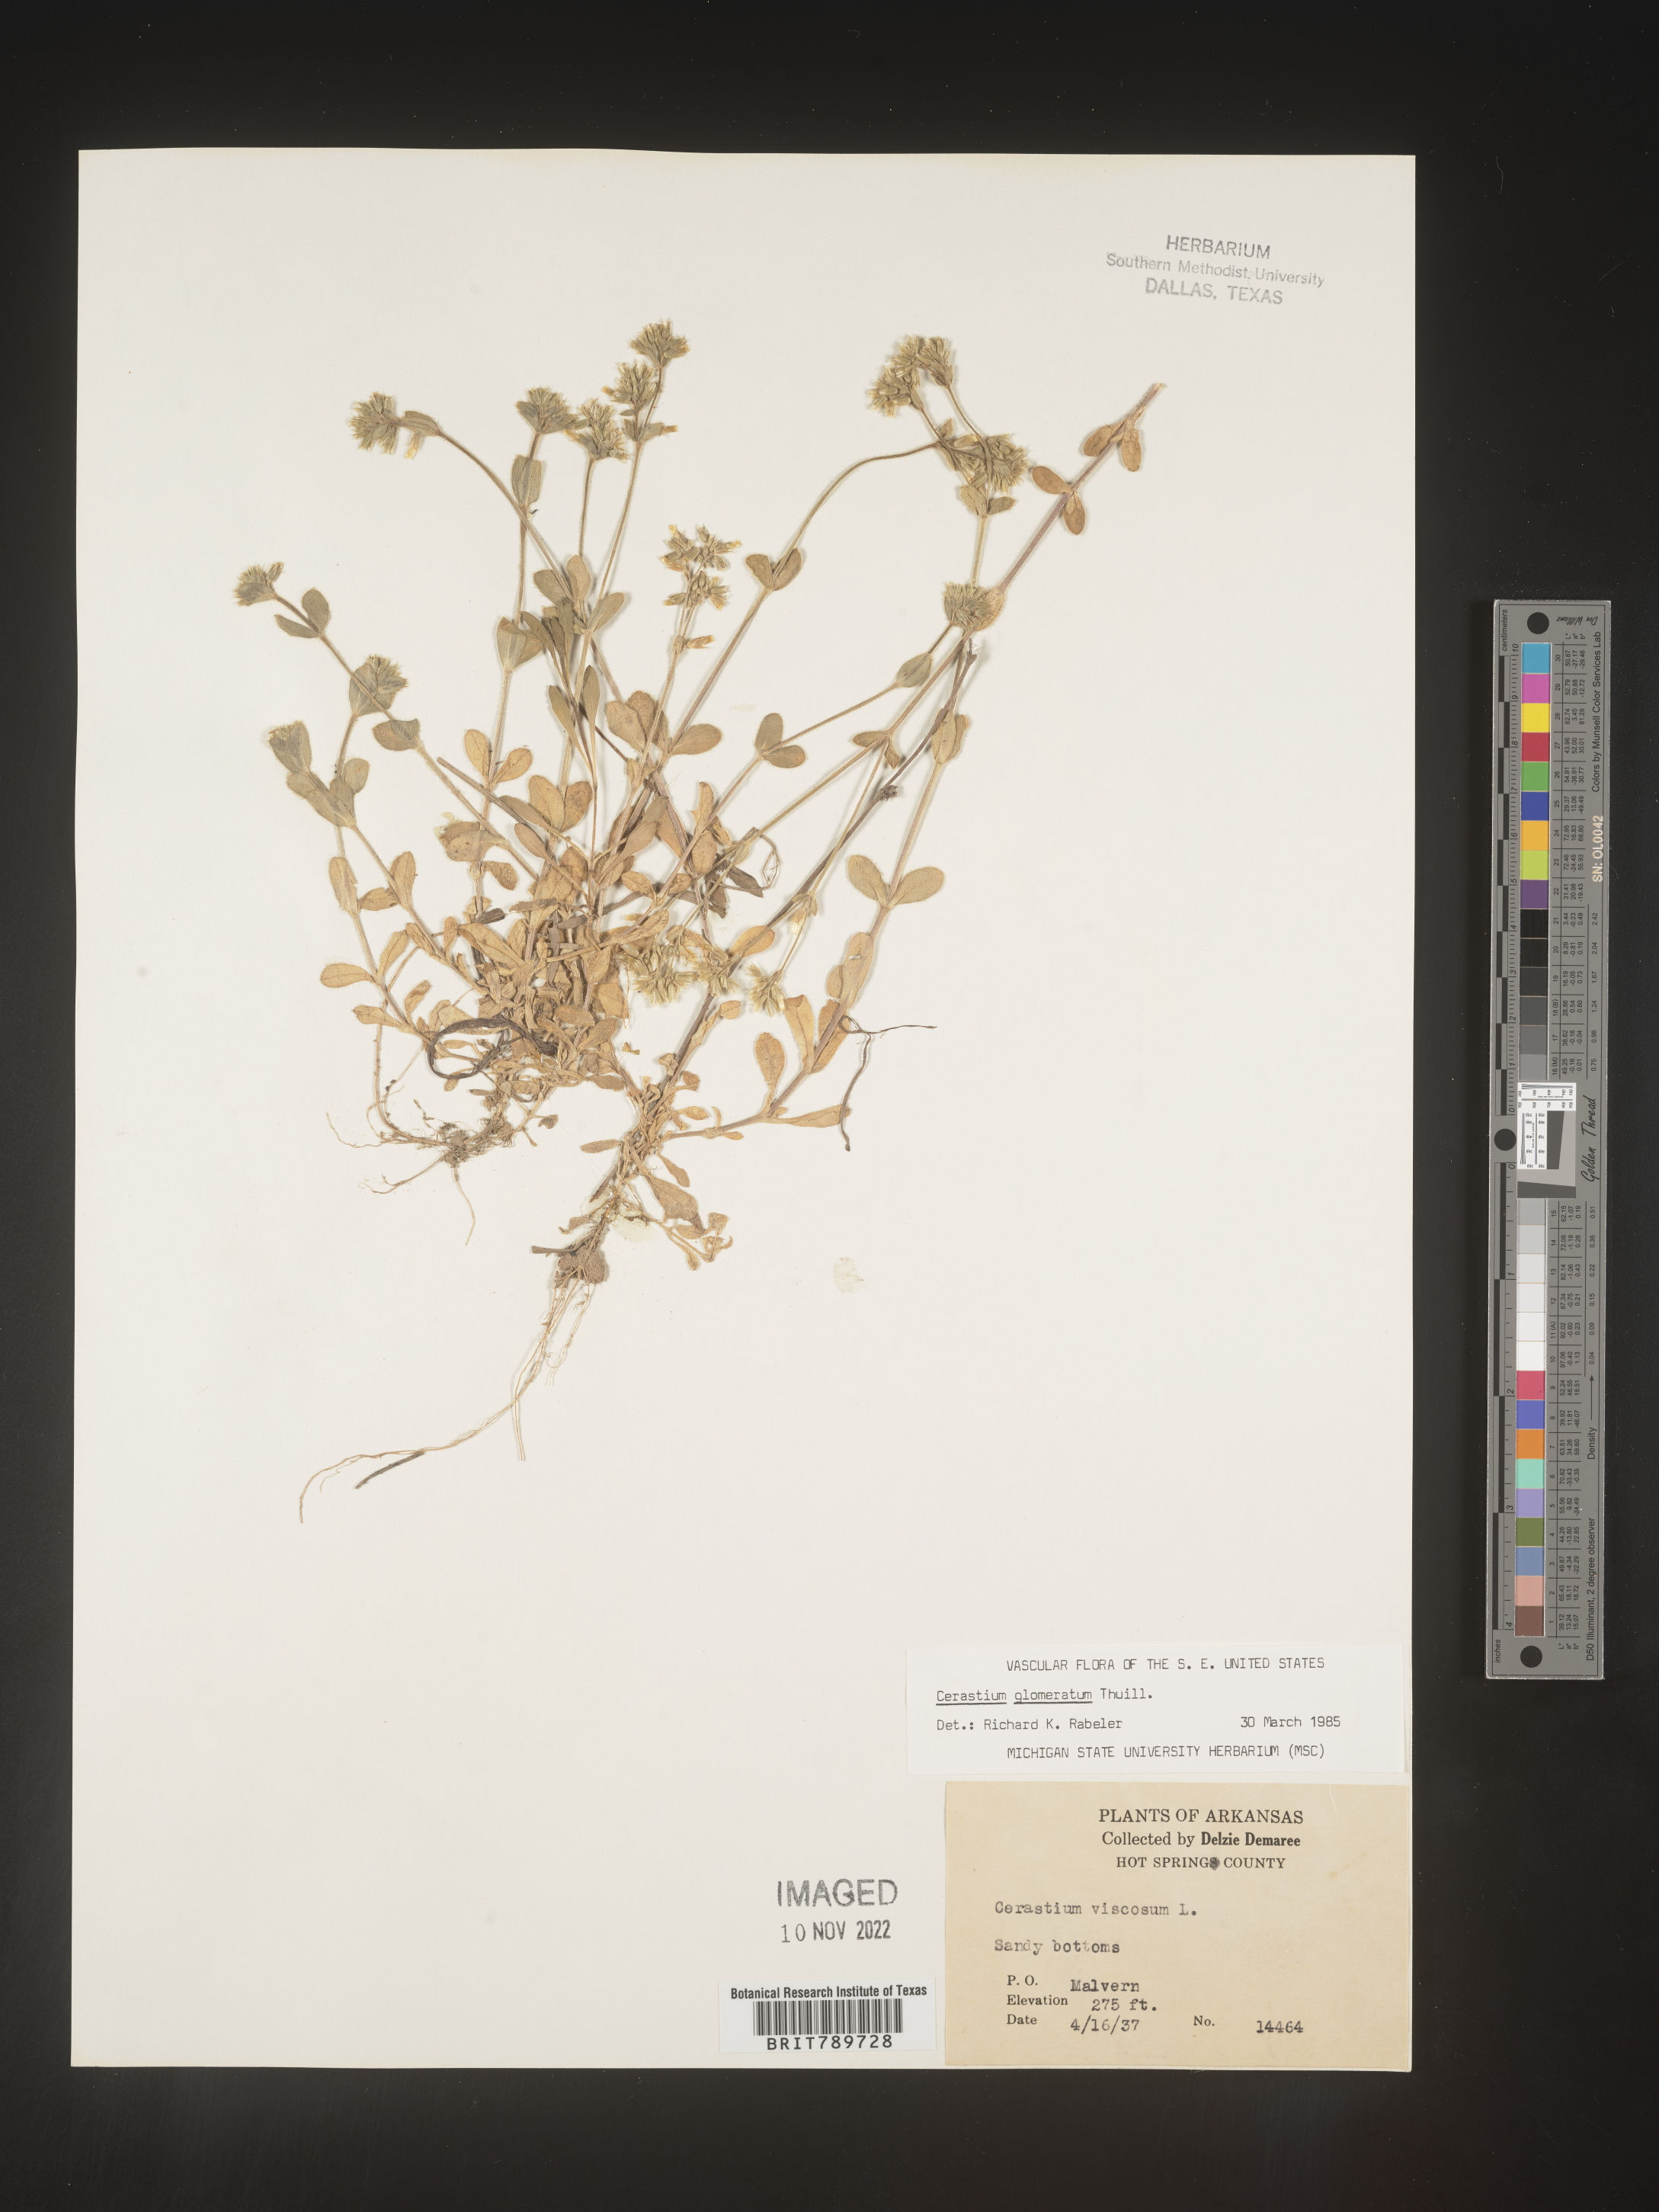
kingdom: Plantae
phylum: Tracheophyta
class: Magnoliopsida
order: Caryophyllales
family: Caryophyllaceae
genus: Cerastium
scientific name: Cerastium glomeratum
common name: Sticky chickweed
